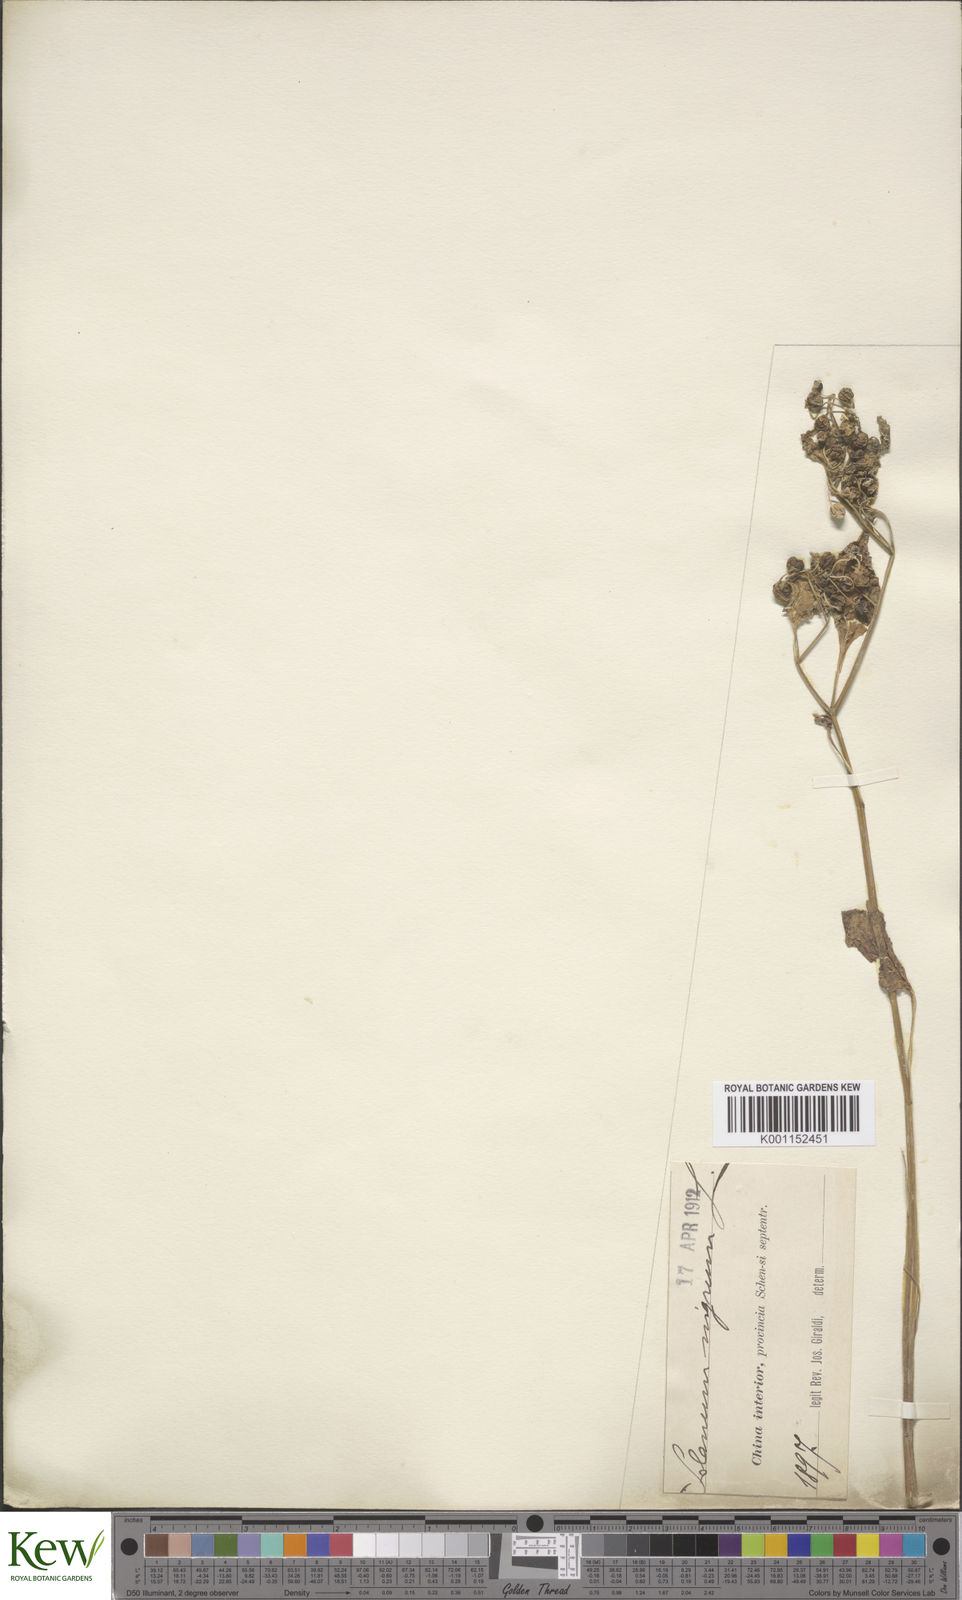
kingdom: Plantae
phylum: Tracheophyta
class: Magnoliopsida
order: Solanales
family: Solanaceae
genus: Solanum
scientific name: Solanum americanum
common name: American black nightshade
